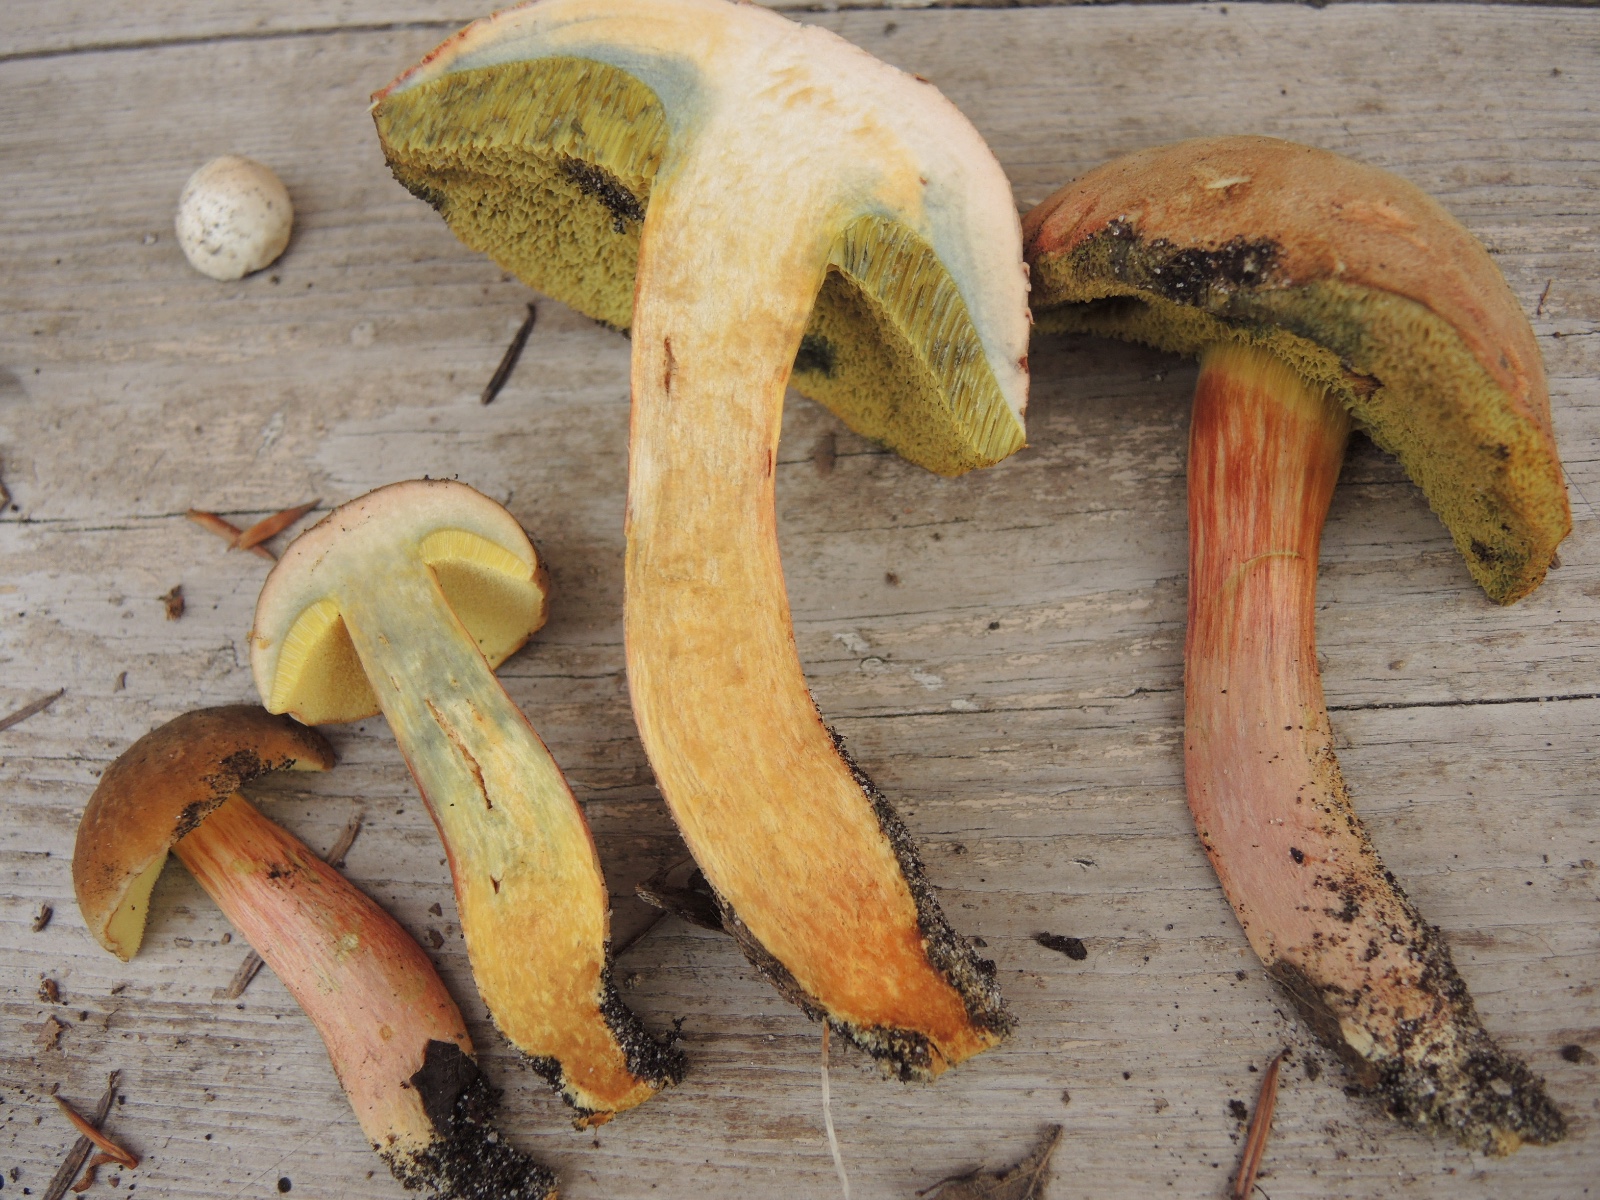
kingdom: Fungi
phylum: Basidiomycota
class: Agaricomycetes
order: Boletales
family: Boletaceae
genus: Hortiboletus
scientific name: Hortiboletus bubalinus
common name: aurora-rørhat
